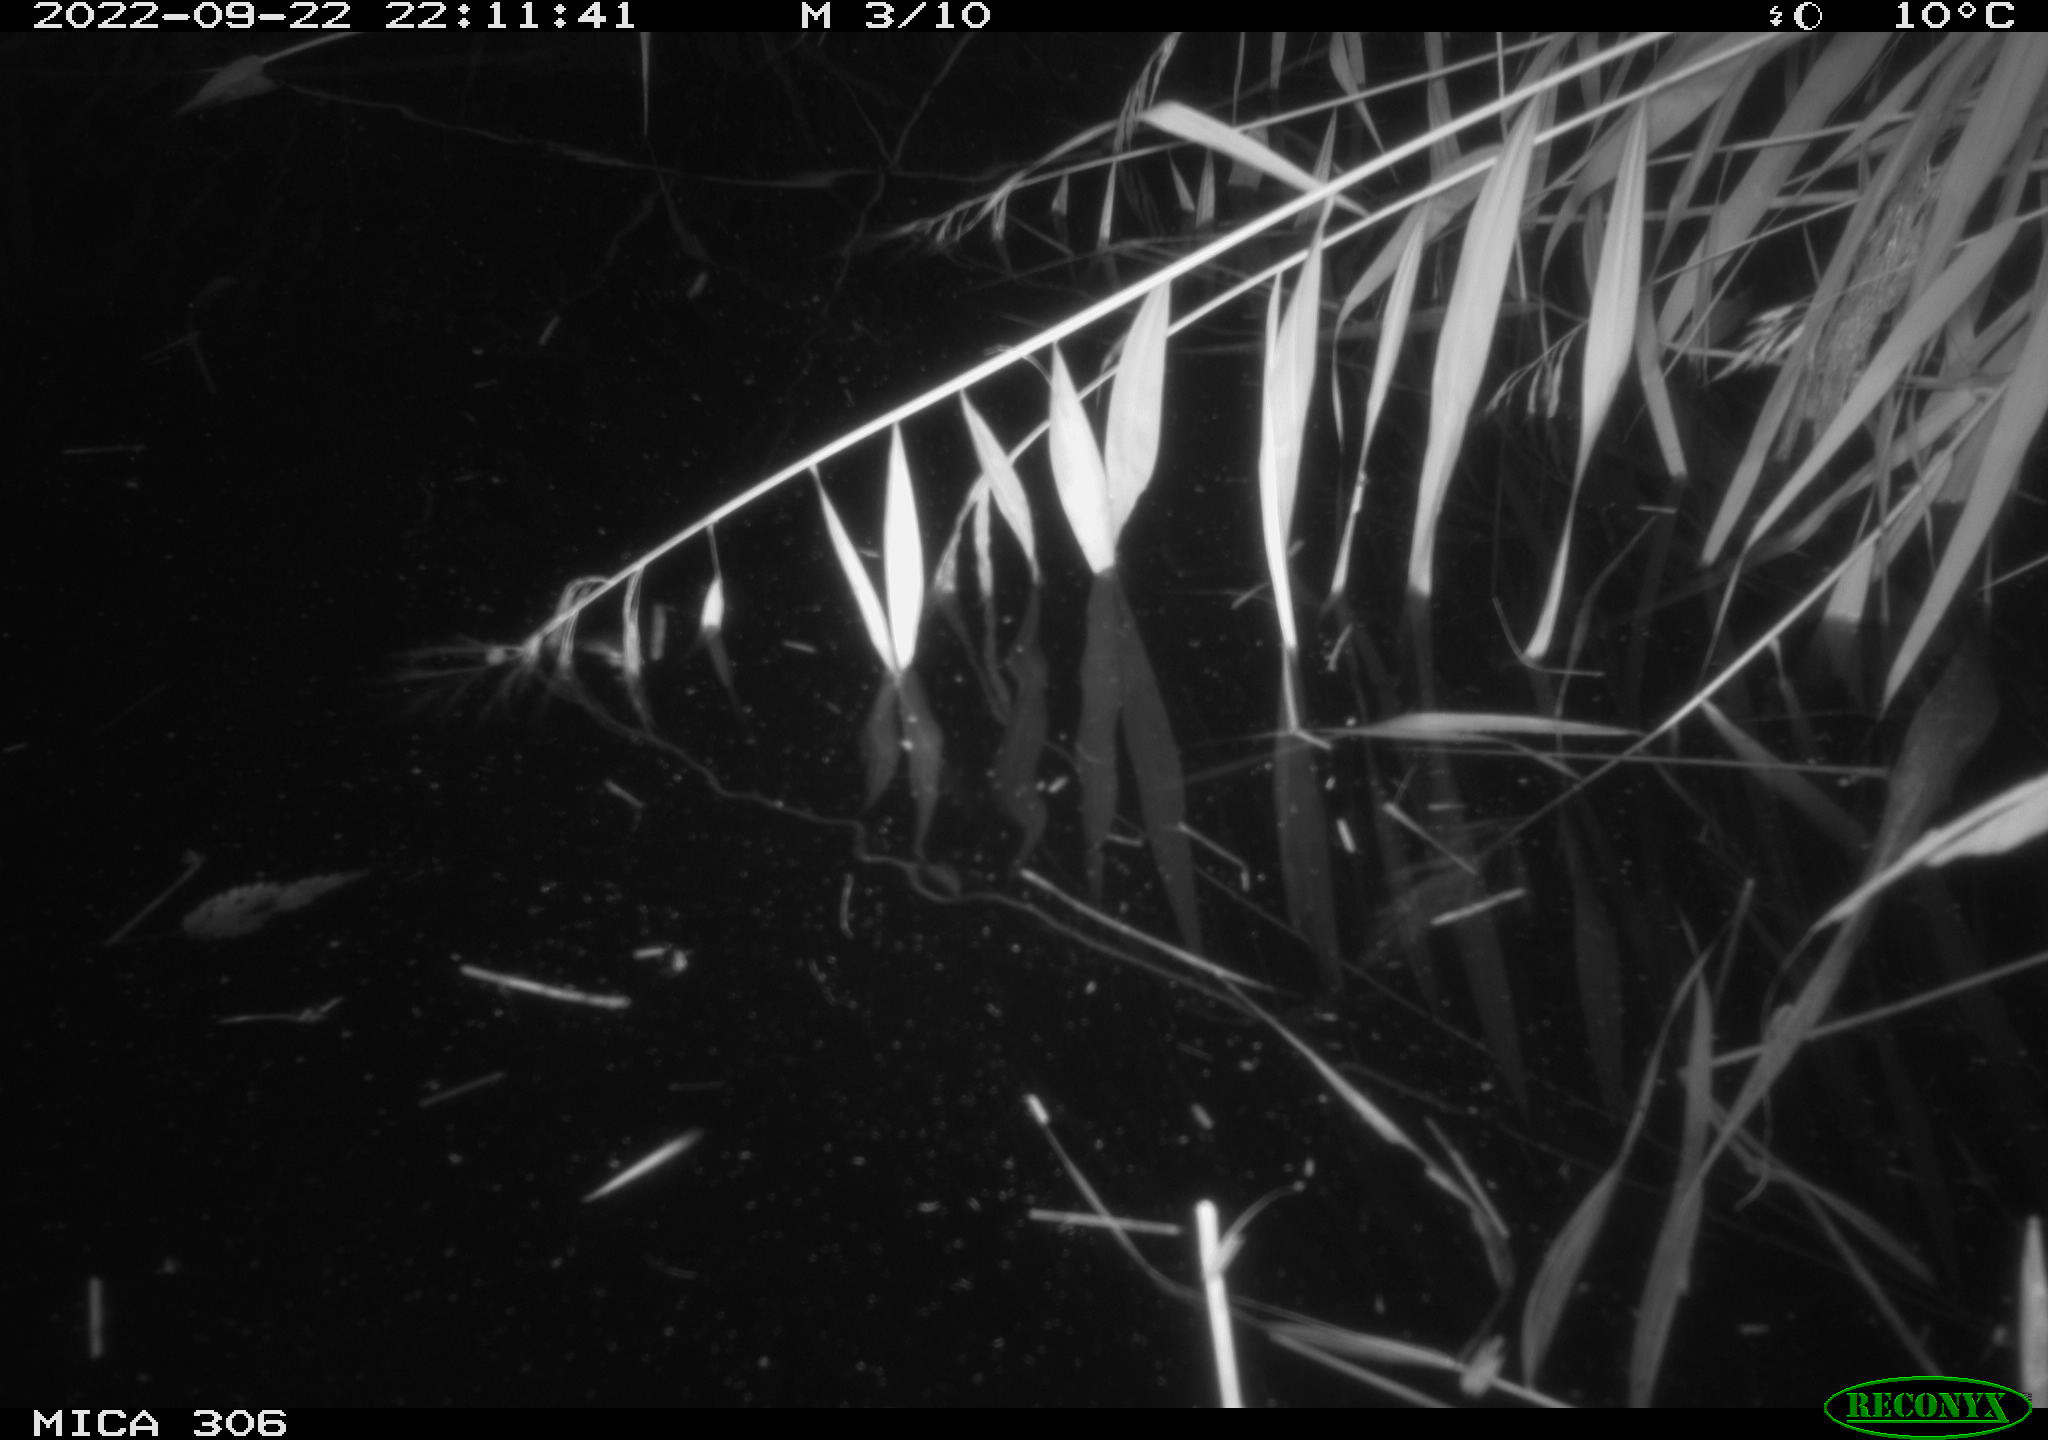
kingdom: Animalia
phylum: Chordata
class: Mammalia
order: Rodentia
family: Muridae
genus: Rattus
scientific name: Rattus norvegicus
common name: Brown rat
